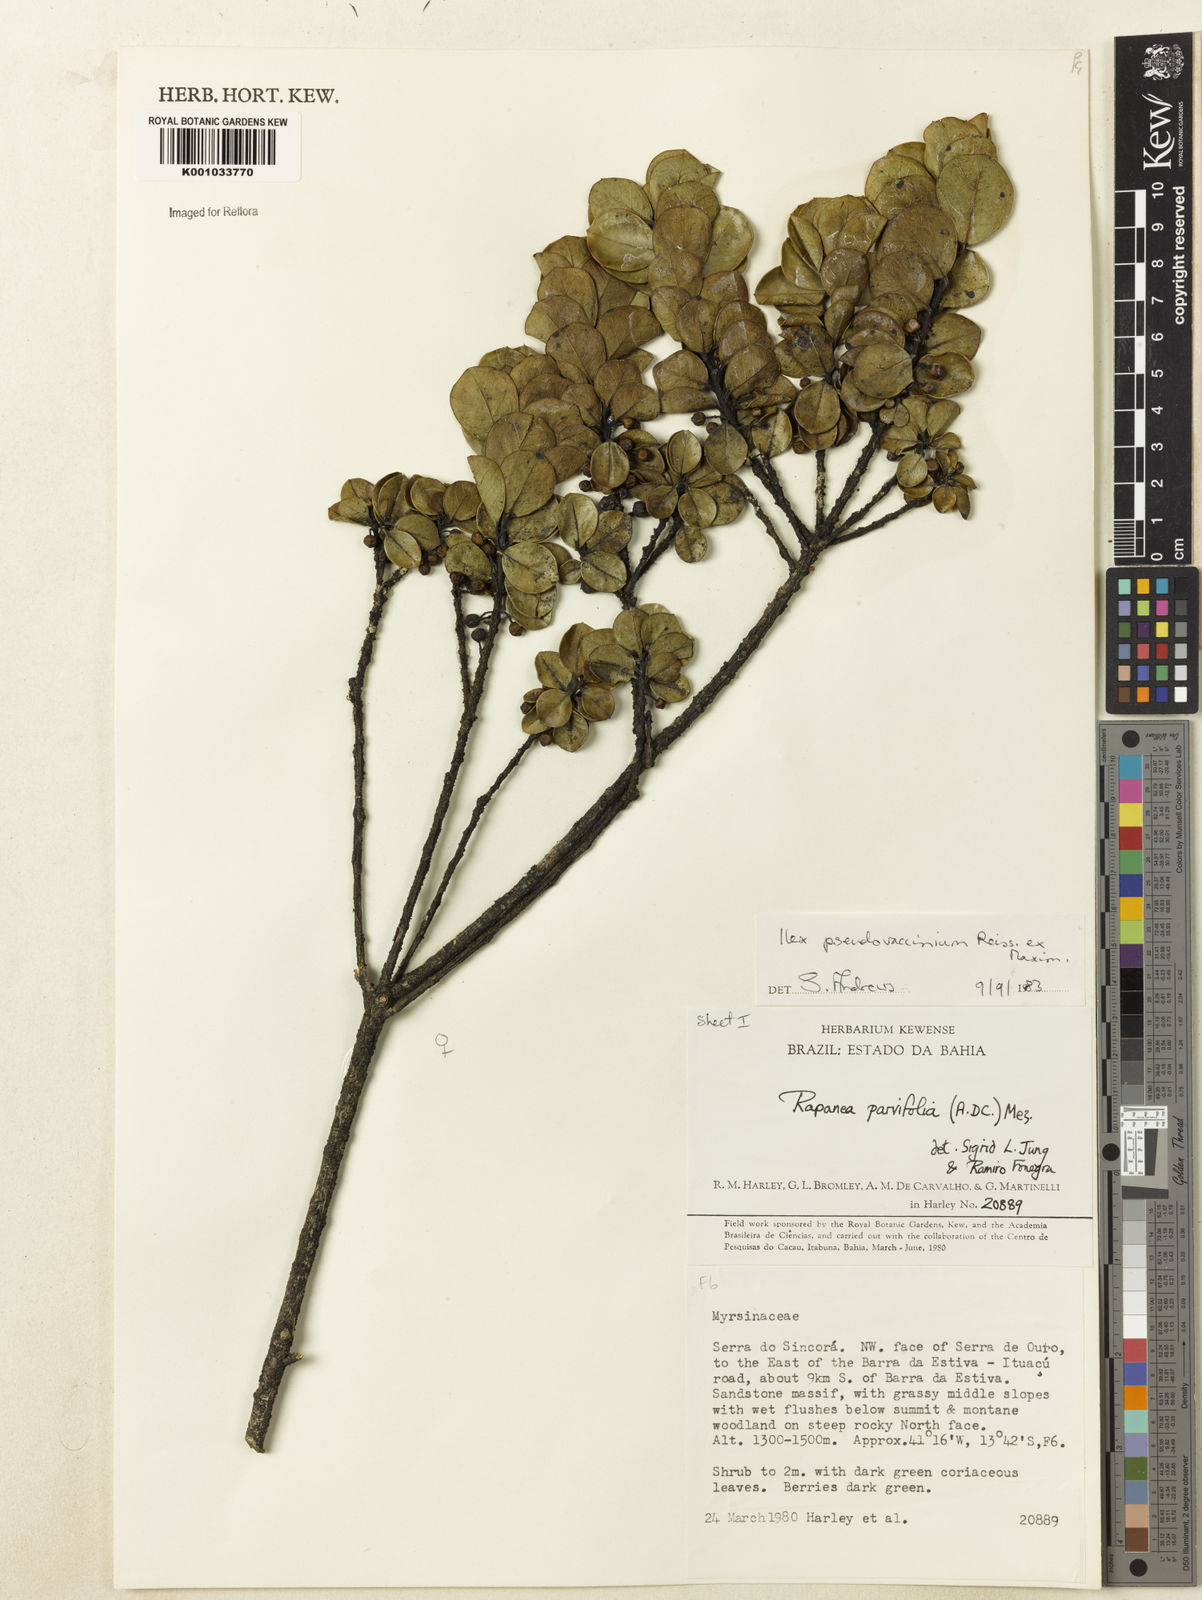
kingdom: Plantae
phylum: Tracheophyta
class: Magnoliopsida
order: Aquifoliales
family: Aquifoliaceae
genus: Ilex
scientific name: Ilex pseudovaccinium
